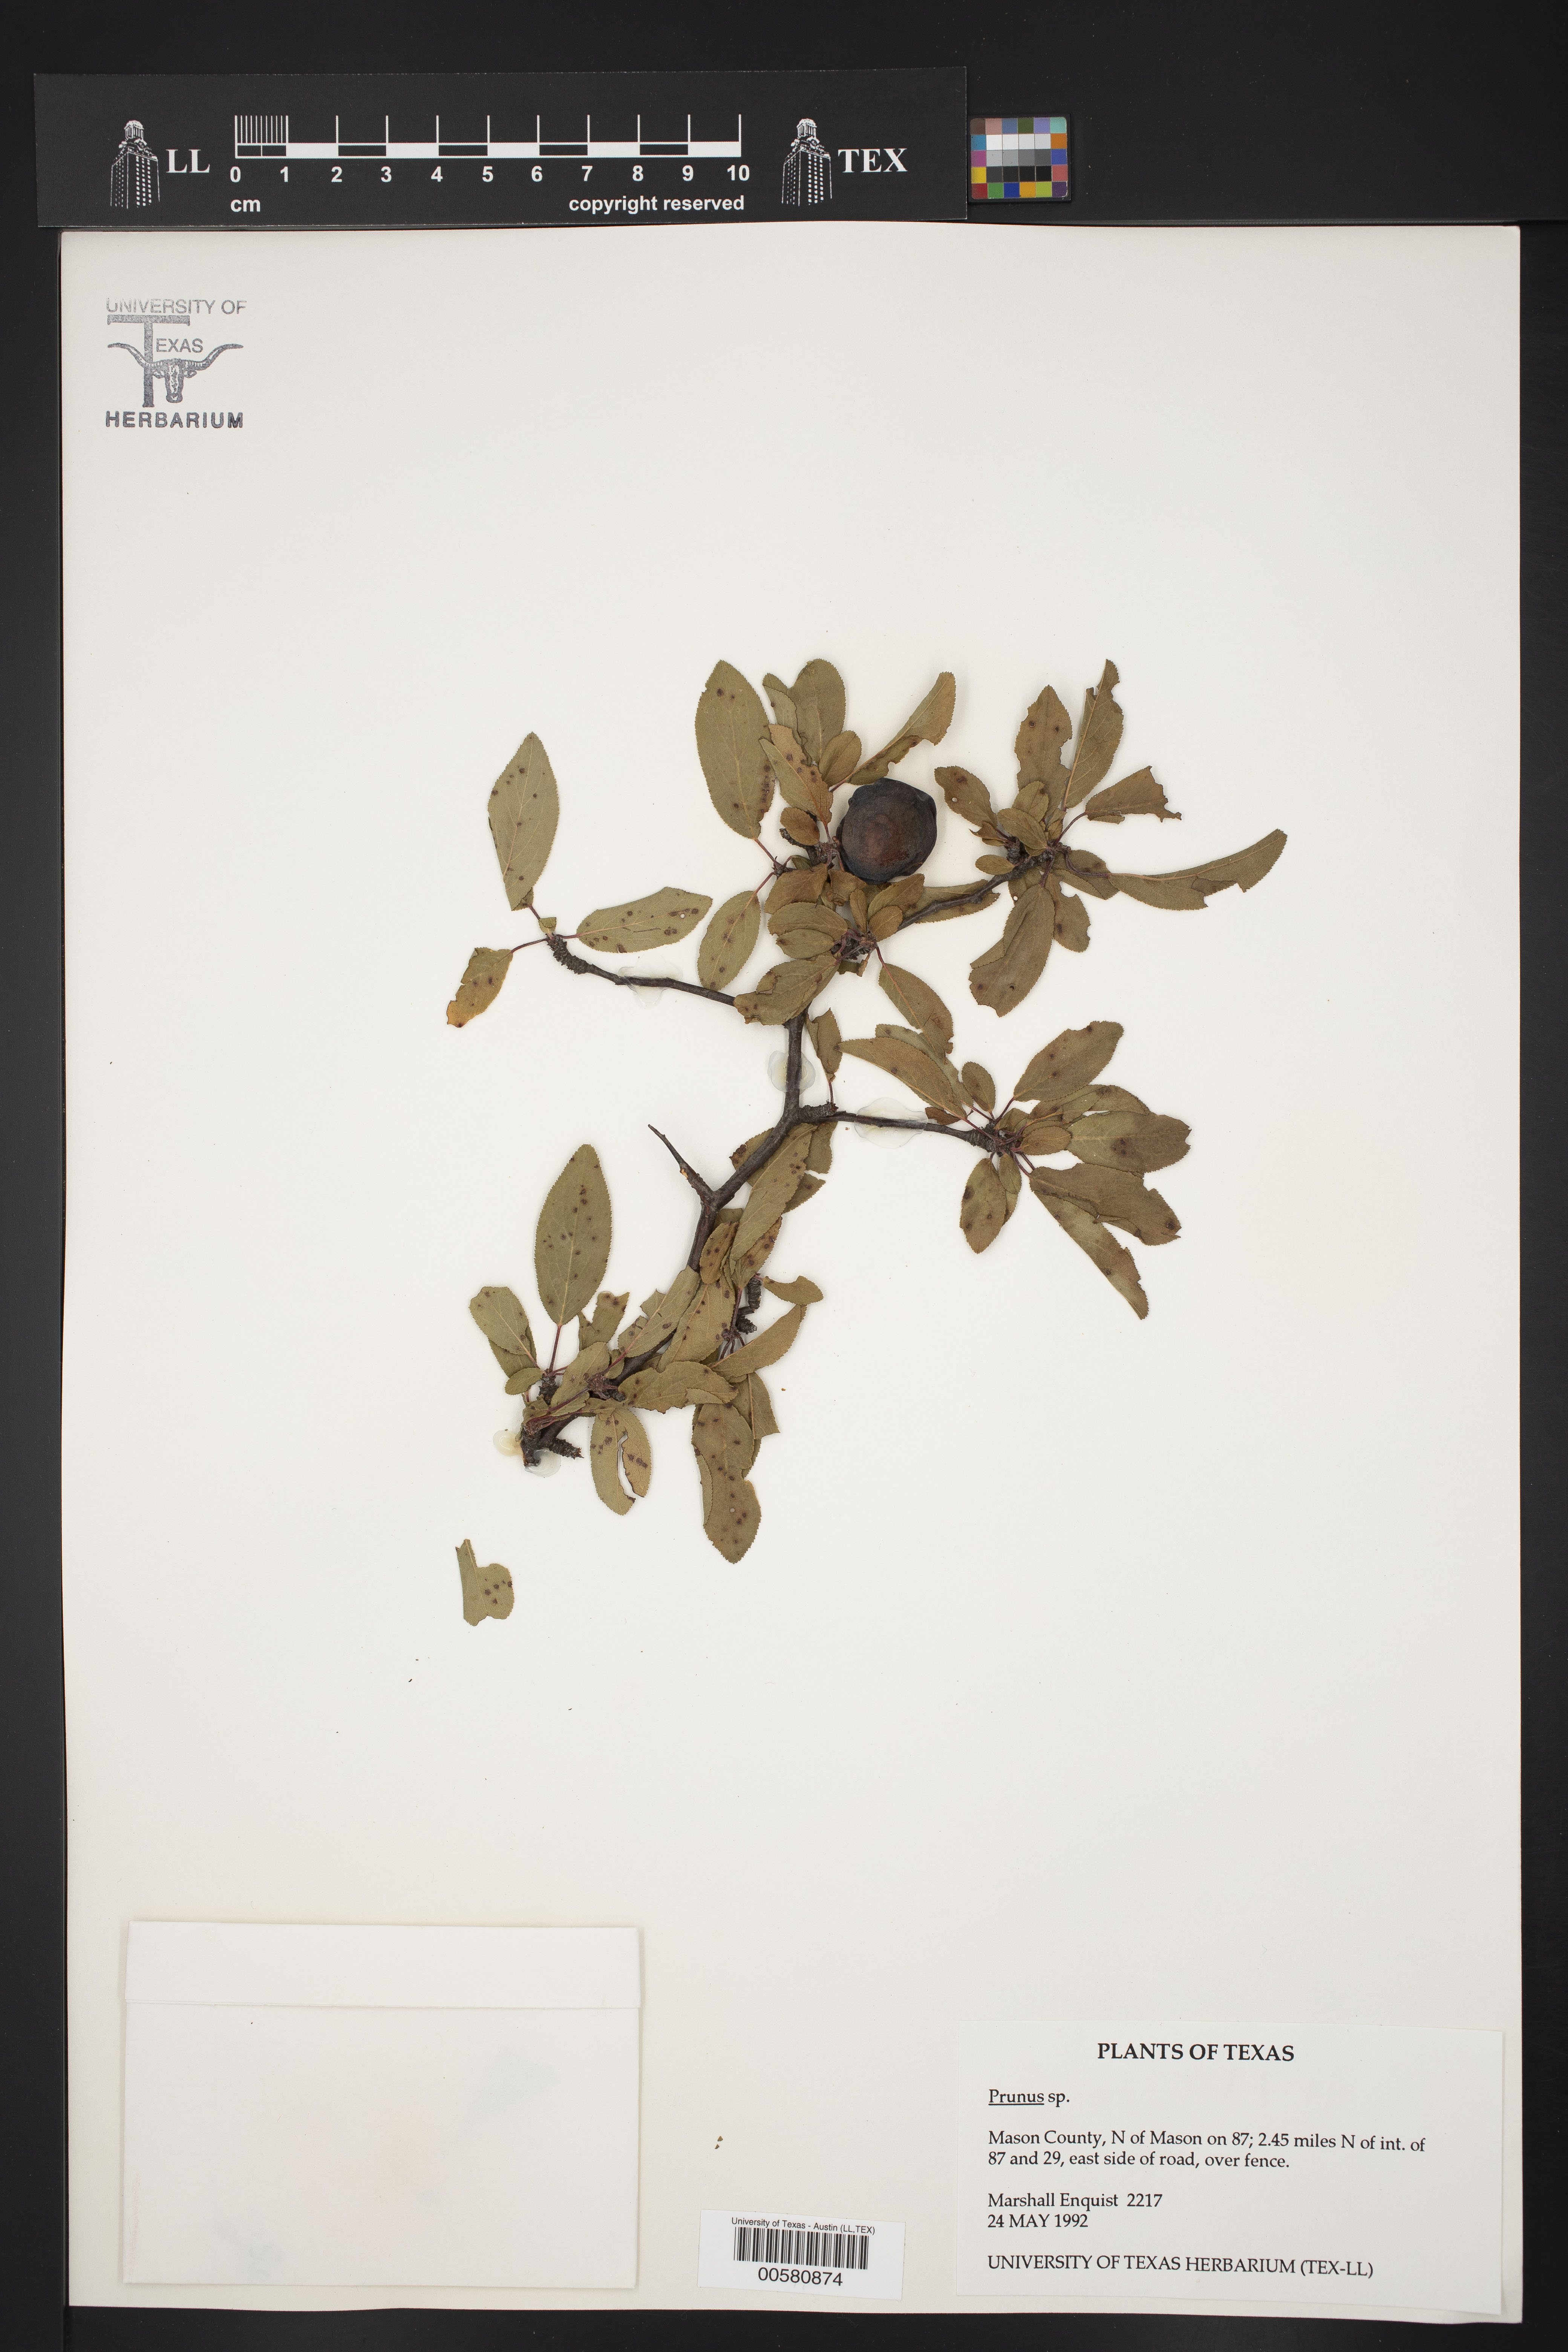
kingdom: Plantae
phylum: Tracheophyta
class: Magnoliopsida
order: Rosales
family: Rosaceae
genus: Prunus
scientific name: Prunus
